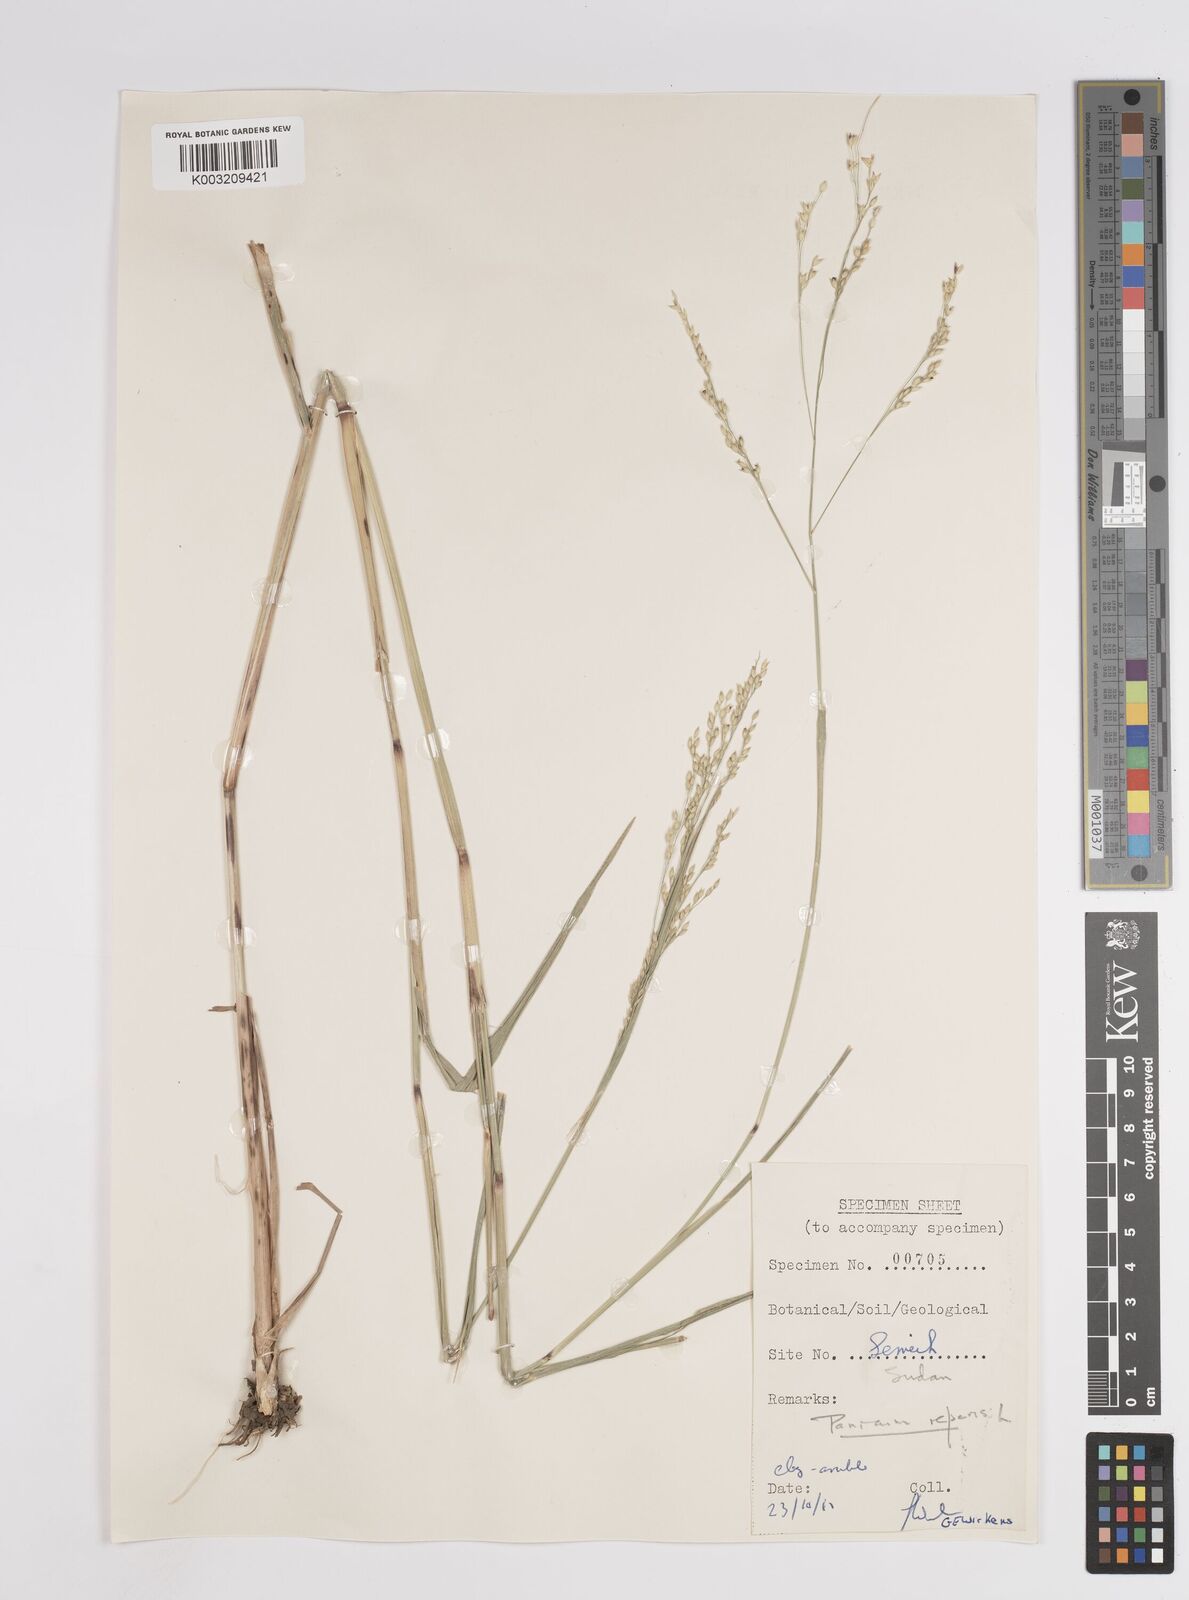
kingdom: Plantae
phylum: Tracheophyta
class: Liliopsida
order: Poales
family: Poaceae
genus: Panicum
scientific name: Panicum repens
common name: Torpedo grass
